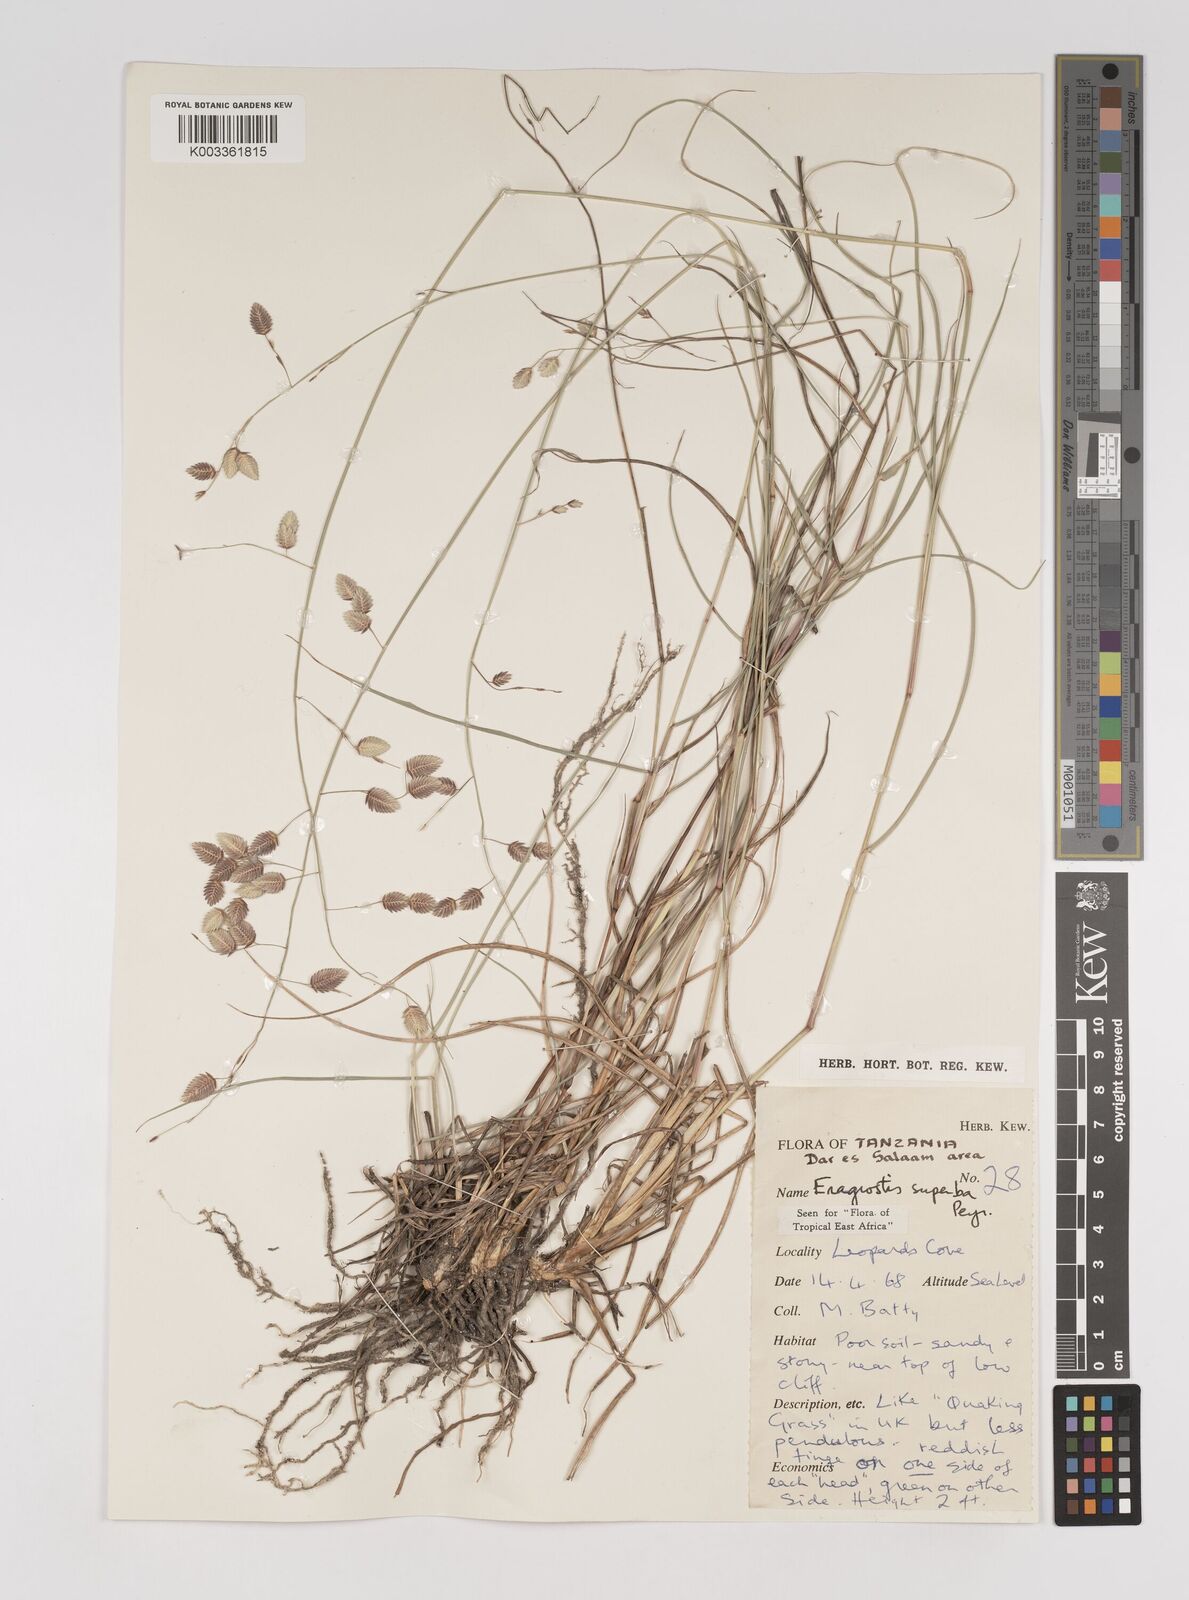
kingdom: Plantae
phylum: Tracheophyta
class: Liliopsida
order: Poales
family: Poaceae
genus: Eragrostis
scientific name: Eragrostis superba
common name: Wilman lovegrass
